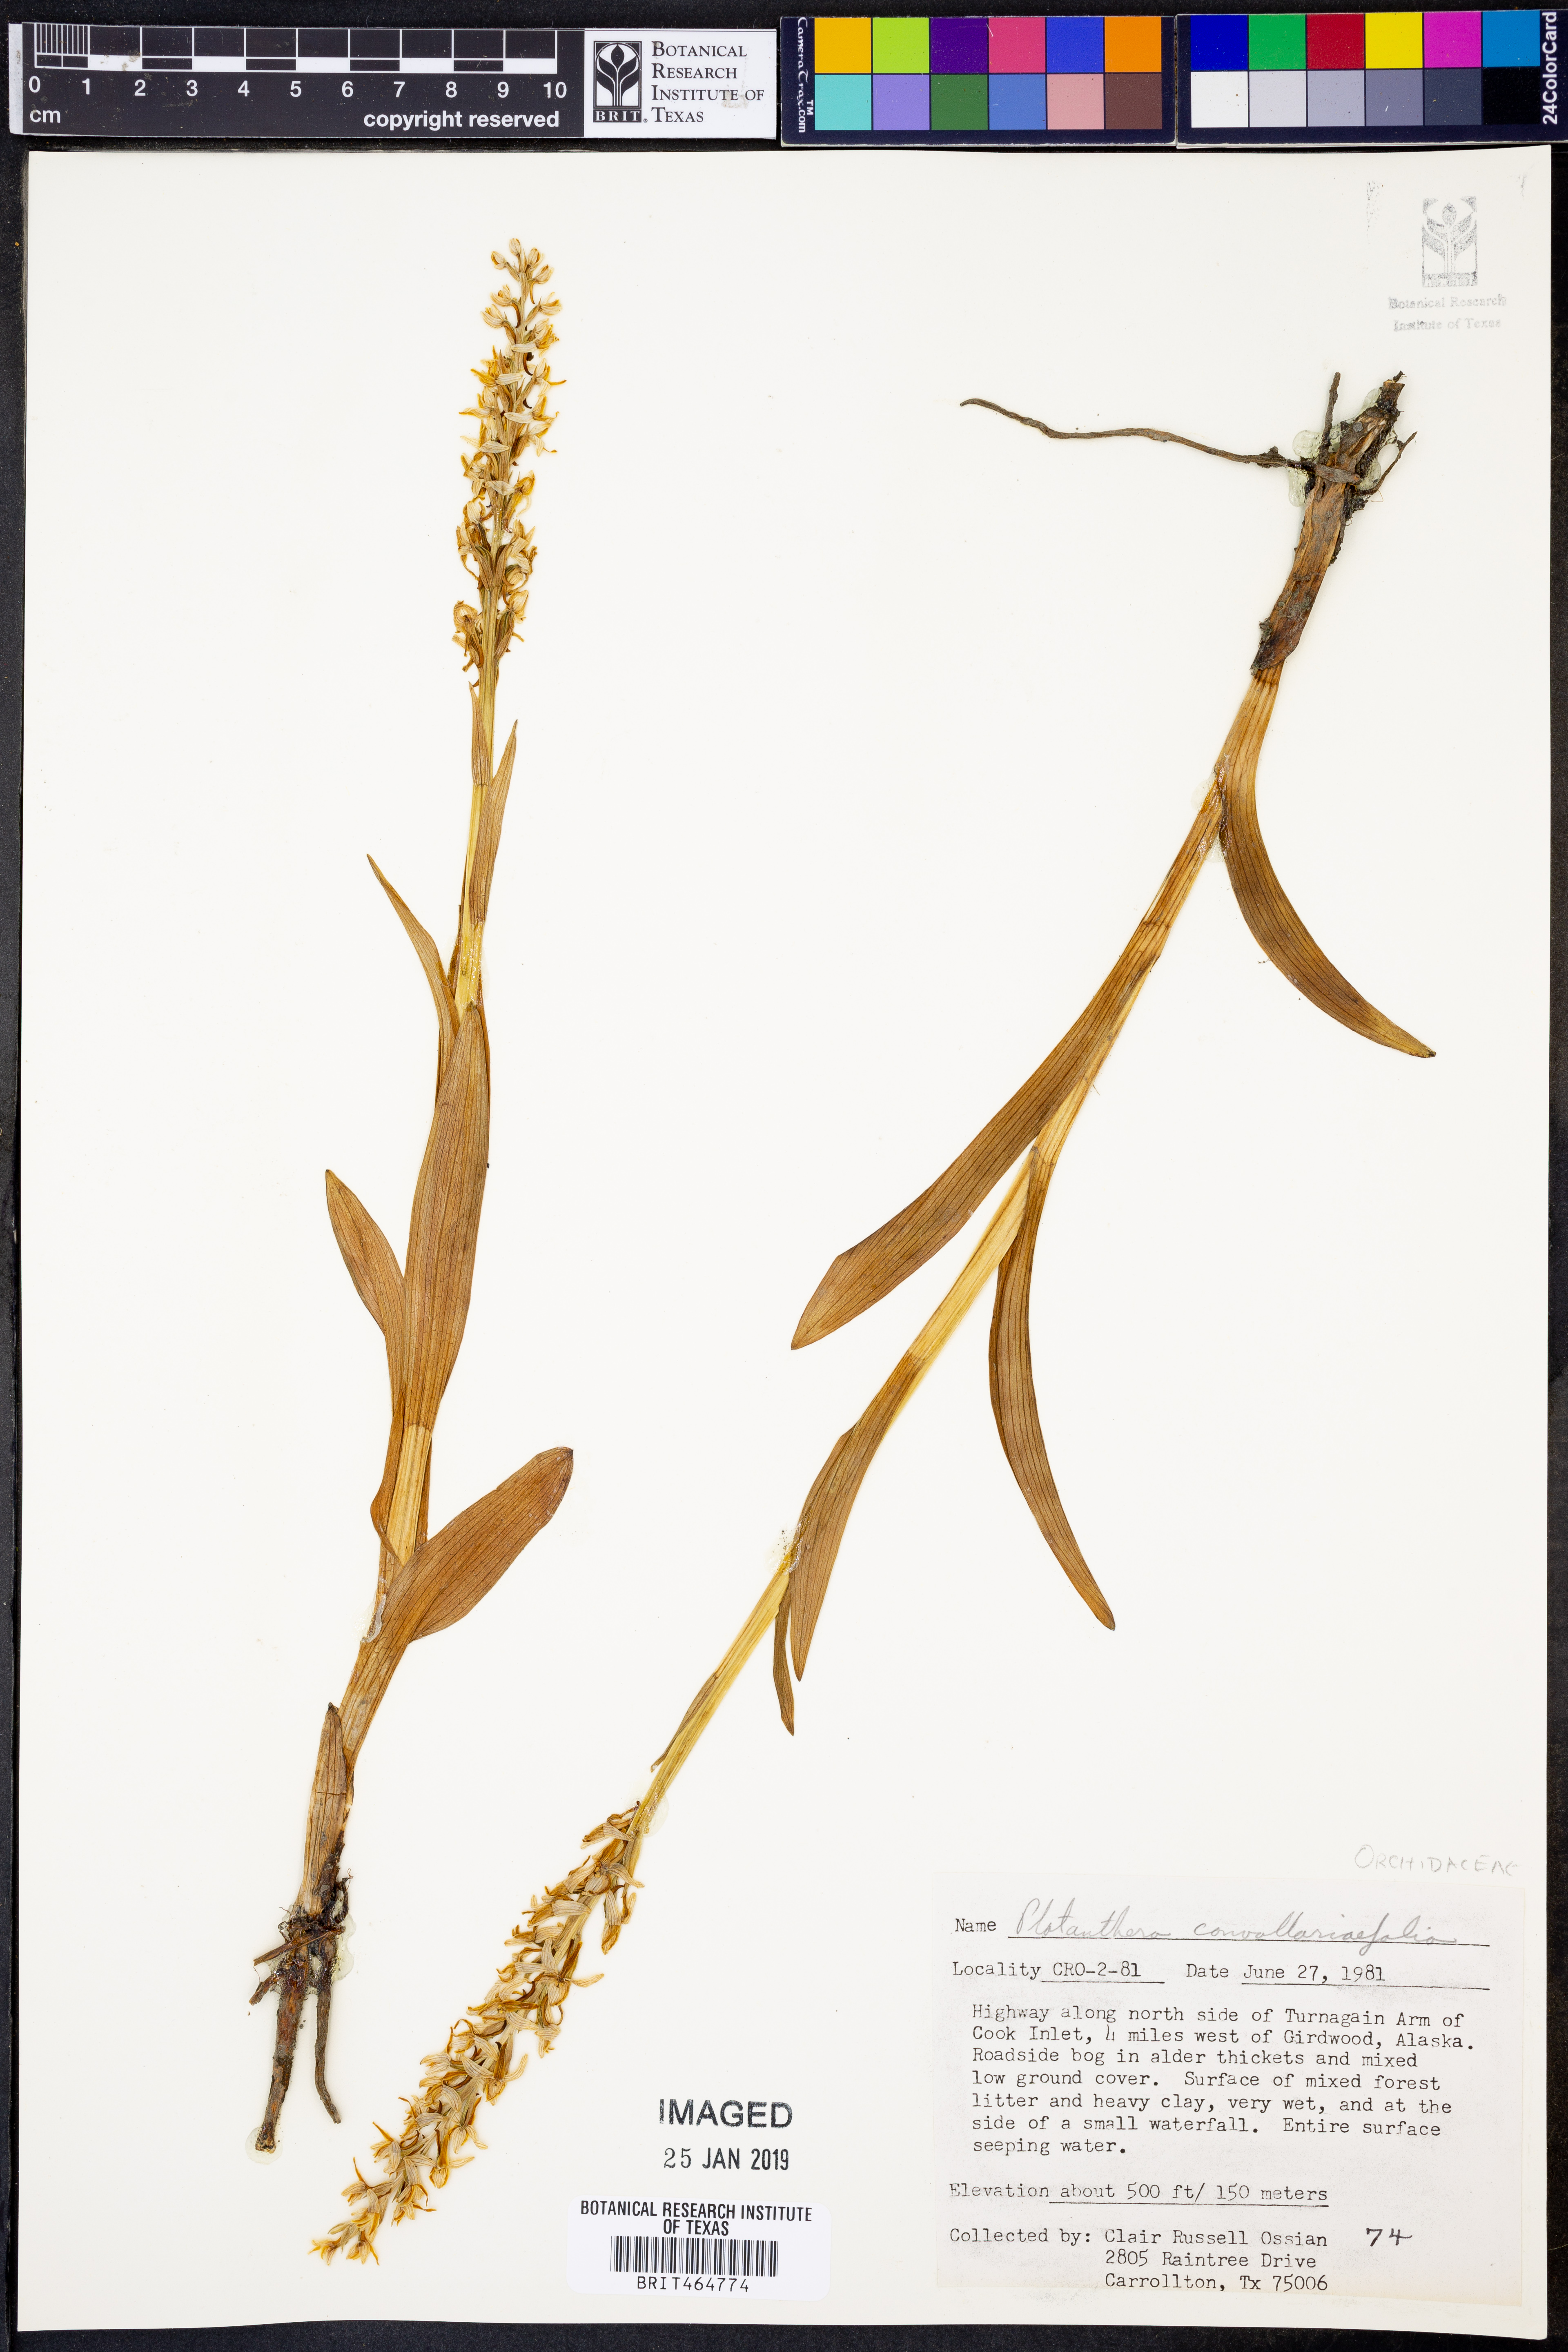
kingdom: Plantae
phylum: Tracheophyta
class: Liliopsida
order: Asparagales
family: Orchidaceae
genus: Platanthera
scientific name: Platanthera convallariifolia
